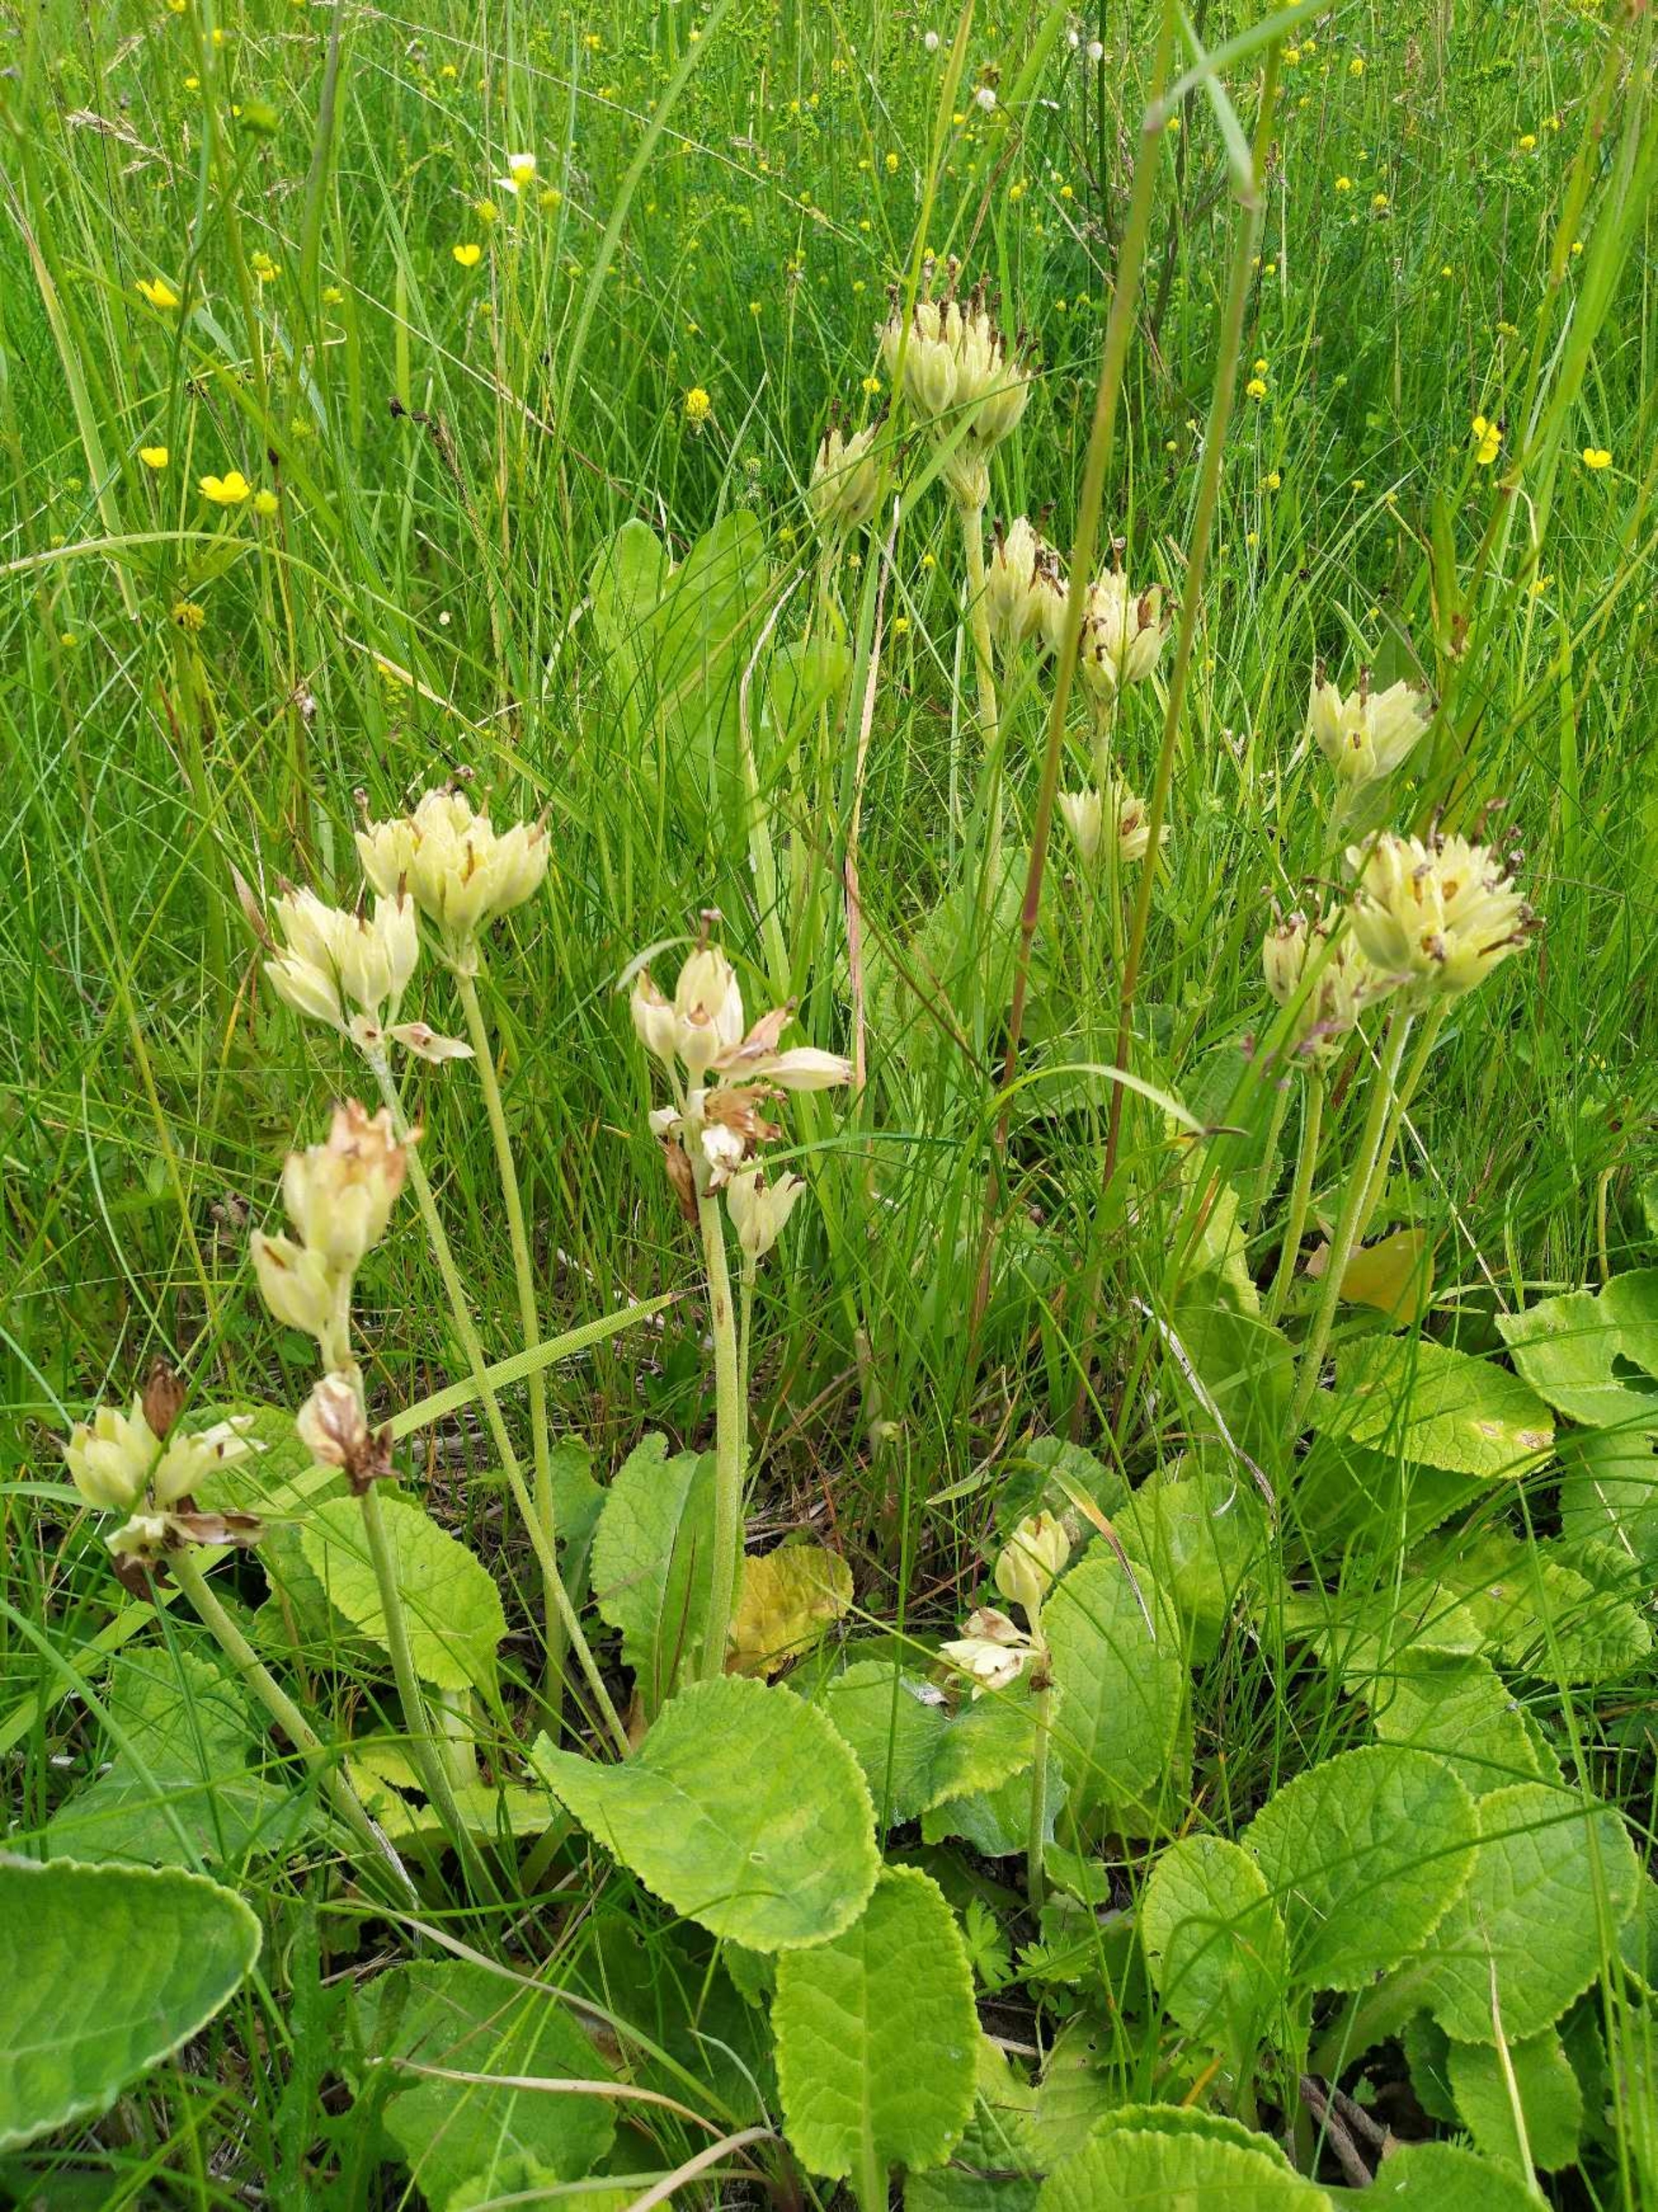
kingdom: Plantae
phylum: Tracheophyta
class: Magnoliopsida
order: Ericales
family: Primulaceae
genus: Primula
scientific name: Primula veris
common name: Hulkravet kodriver
